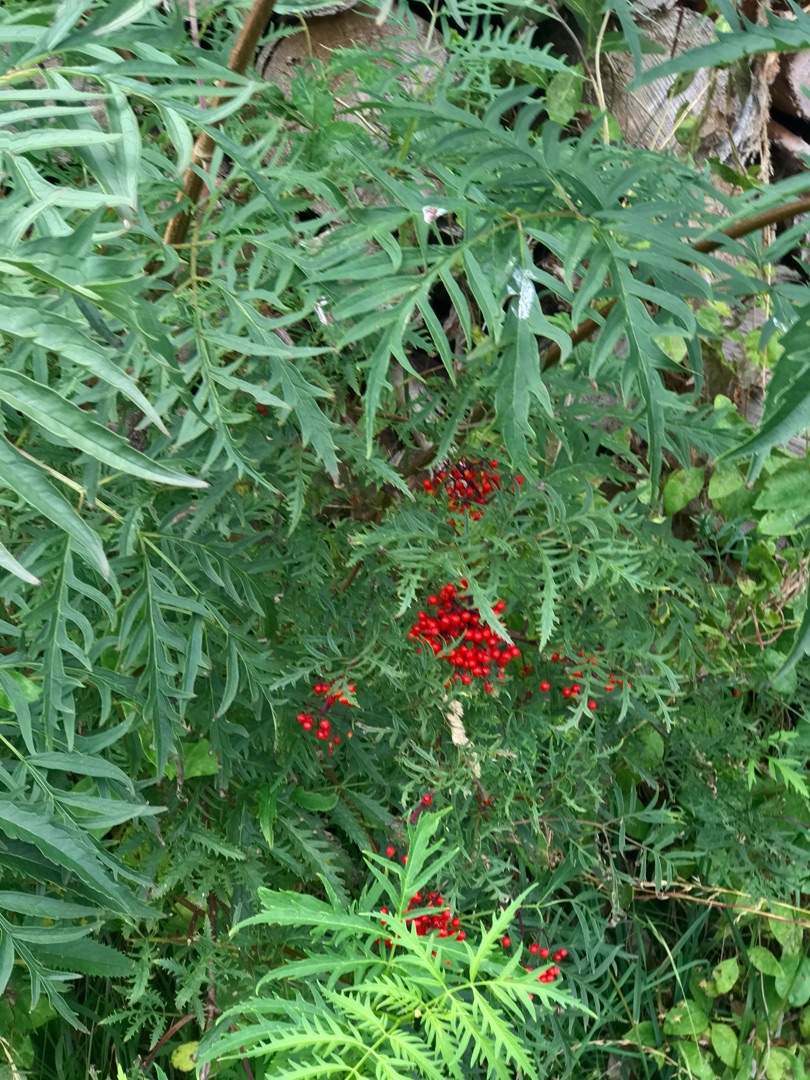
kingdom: Plantae
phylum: Tracheophyta
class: Magnoliopsida
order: Dipsacales
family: Viburnaceae
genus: Sambucus
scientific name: Sambucus racemosa
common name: Drue-hyld
